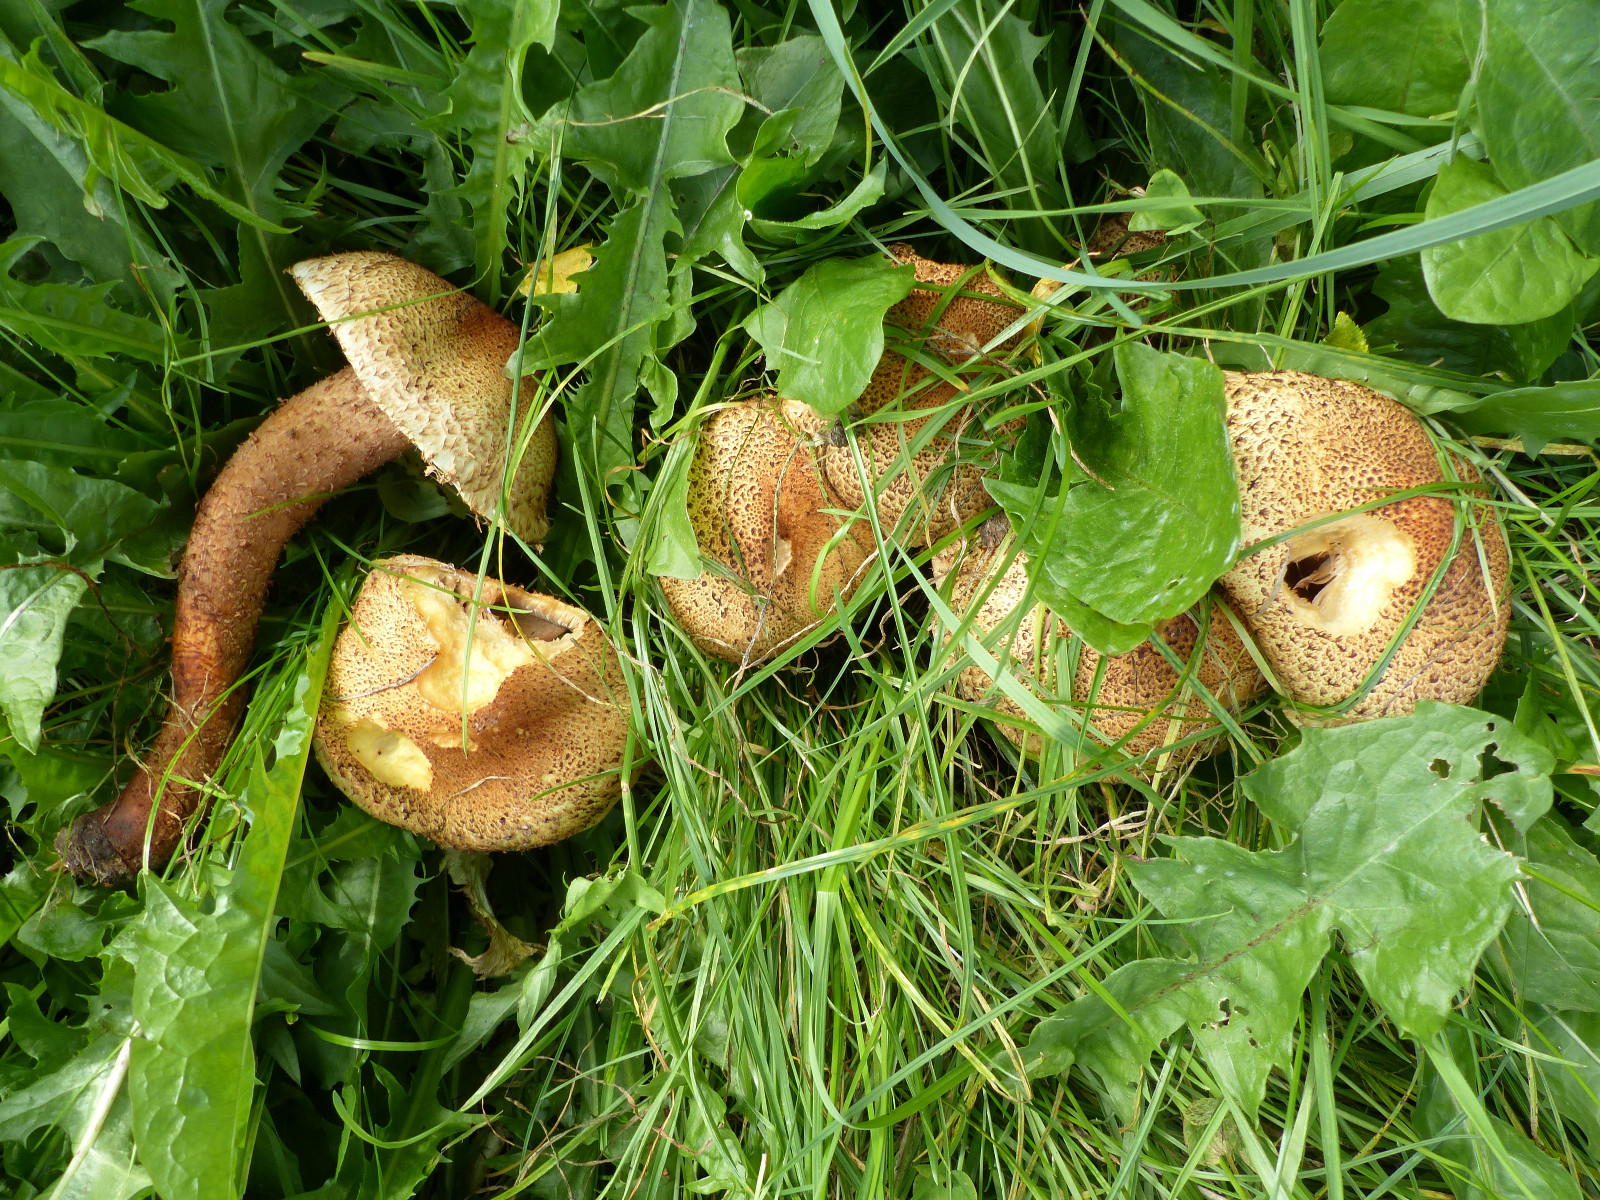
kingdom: Fungi
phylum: Basidiomycota
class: Agaricomycetes
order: Agaricales
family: Strophariaceae
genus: Pholiota
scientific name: Pholiota squarrosa
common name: krumskællet skælhat
